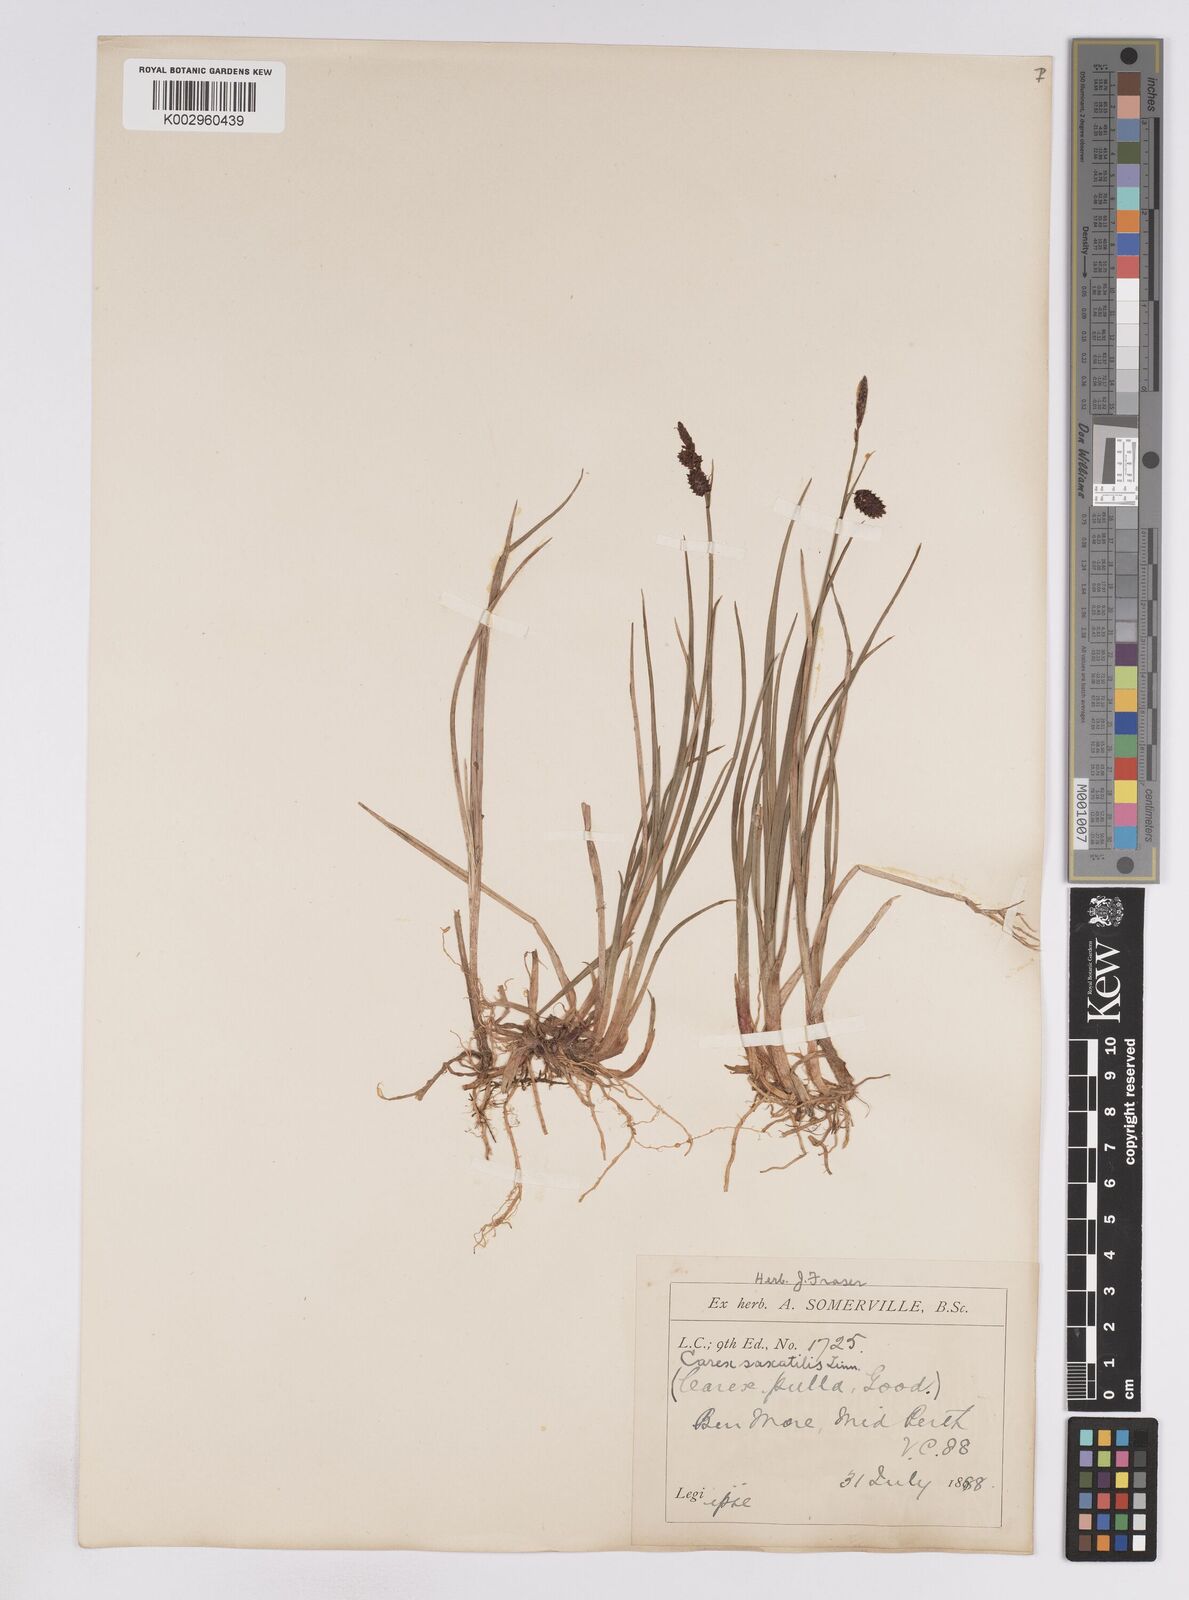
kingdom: Plantae
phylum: Tracheophyta
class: Liliopsida
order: Poales
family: Cyperaceae
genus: Carex
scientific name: Carex saxatilis
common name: Russet sedge
